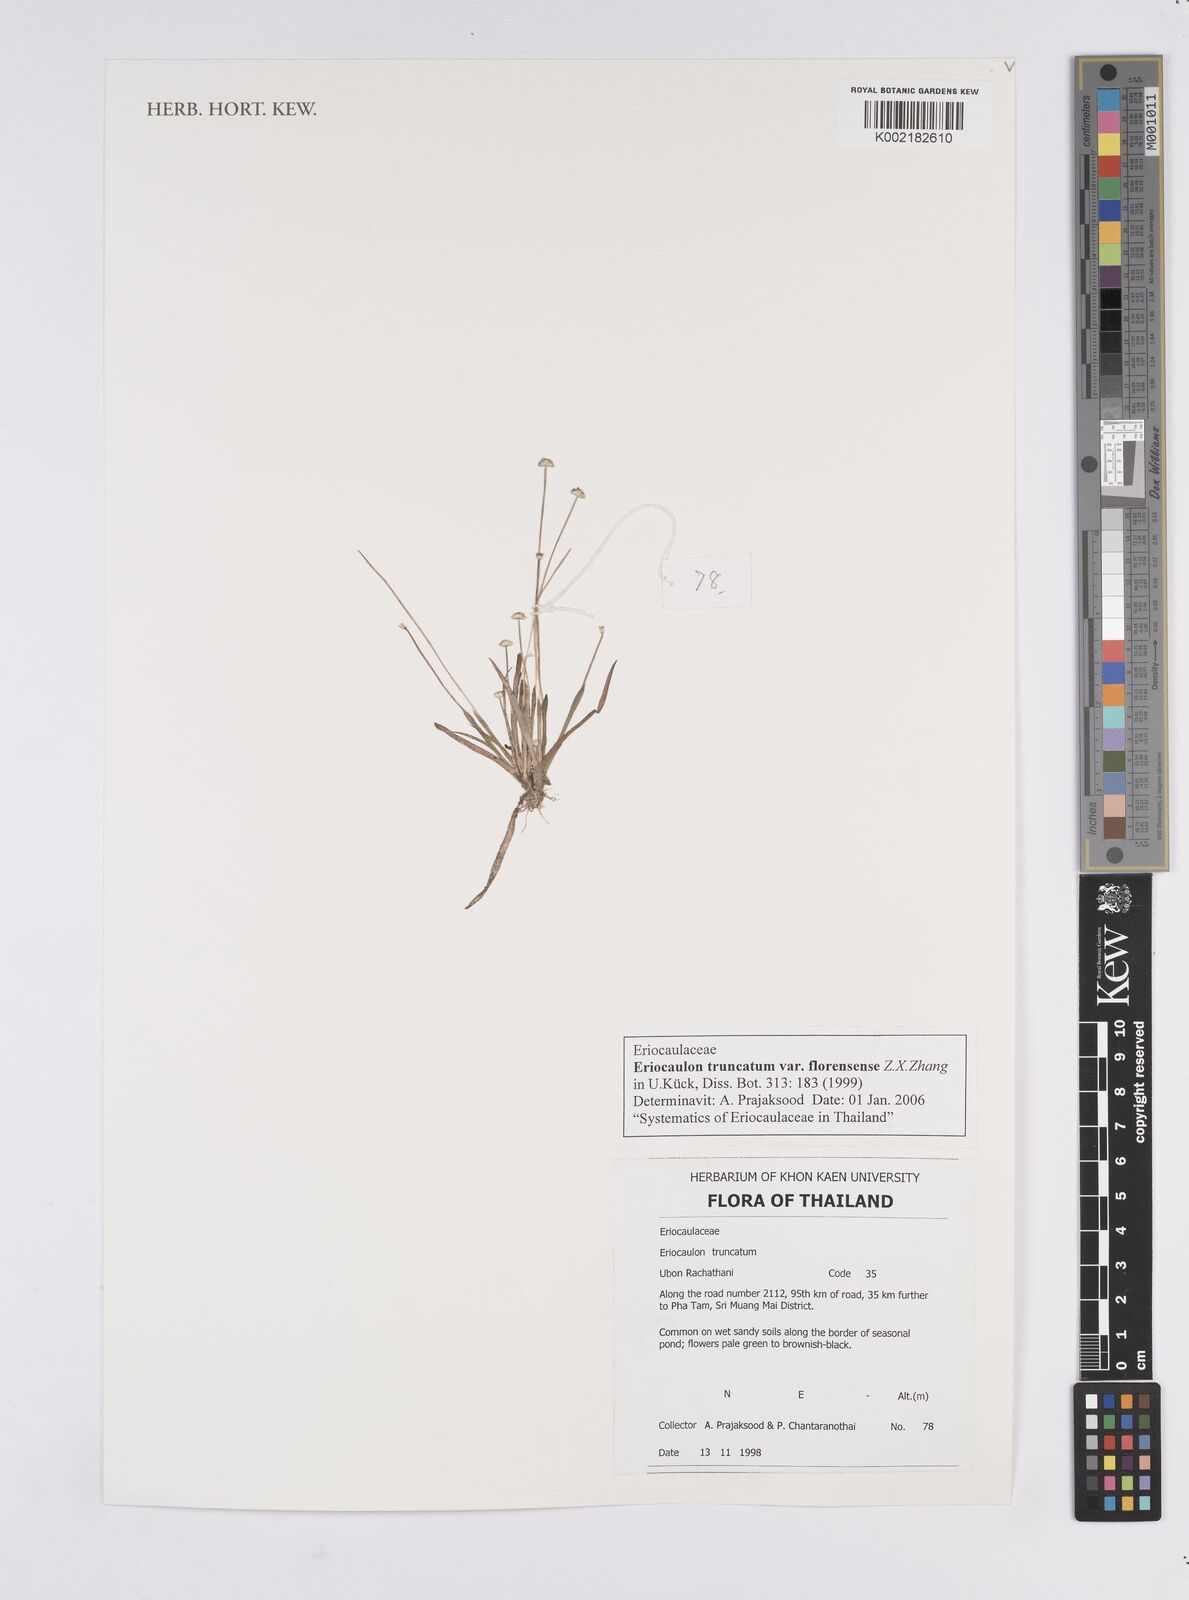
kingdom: Plantae
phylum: Tracheophyta
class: Liliopsida
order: Poales
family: Eriocaulaceae
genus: Eriocaulon
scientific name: Eriocaulon truncatum
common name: Short pipe-wort
